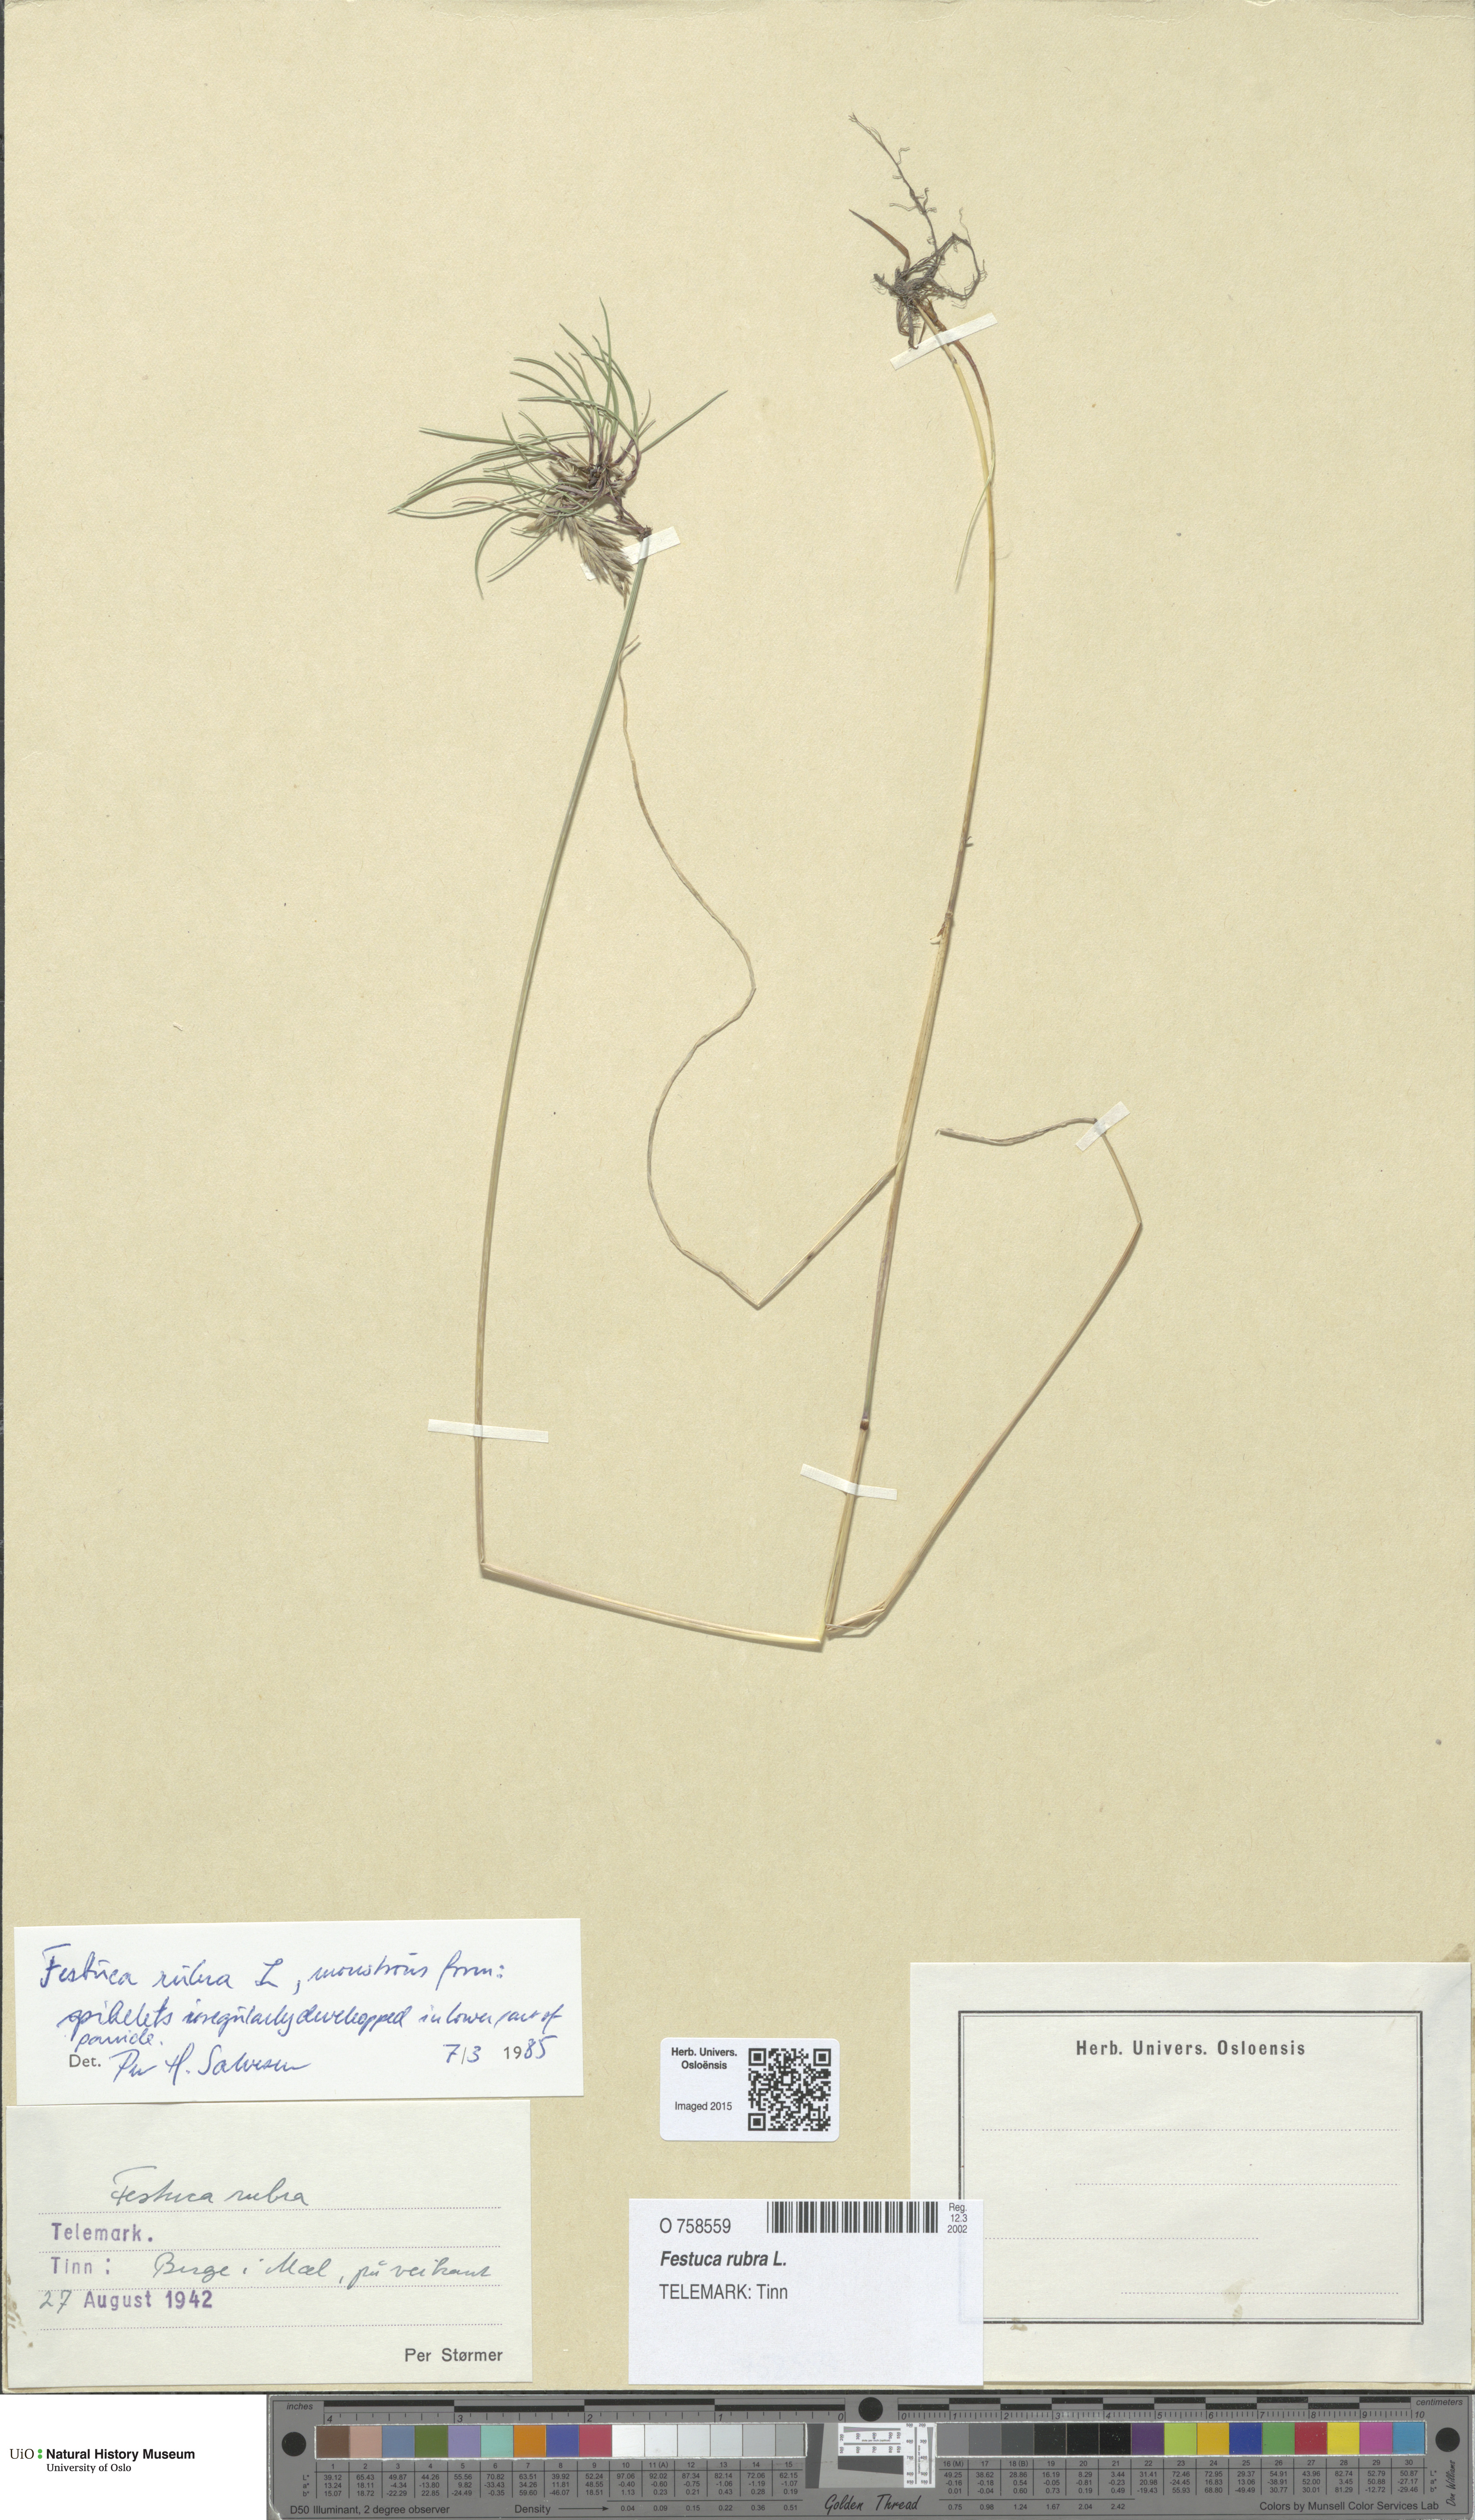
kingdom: Plantae
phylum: Tracheophyta
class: Liliopsida
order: Poales
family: Poaceae
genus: Festuca
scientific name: Festuca rubra
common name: Red fescue
